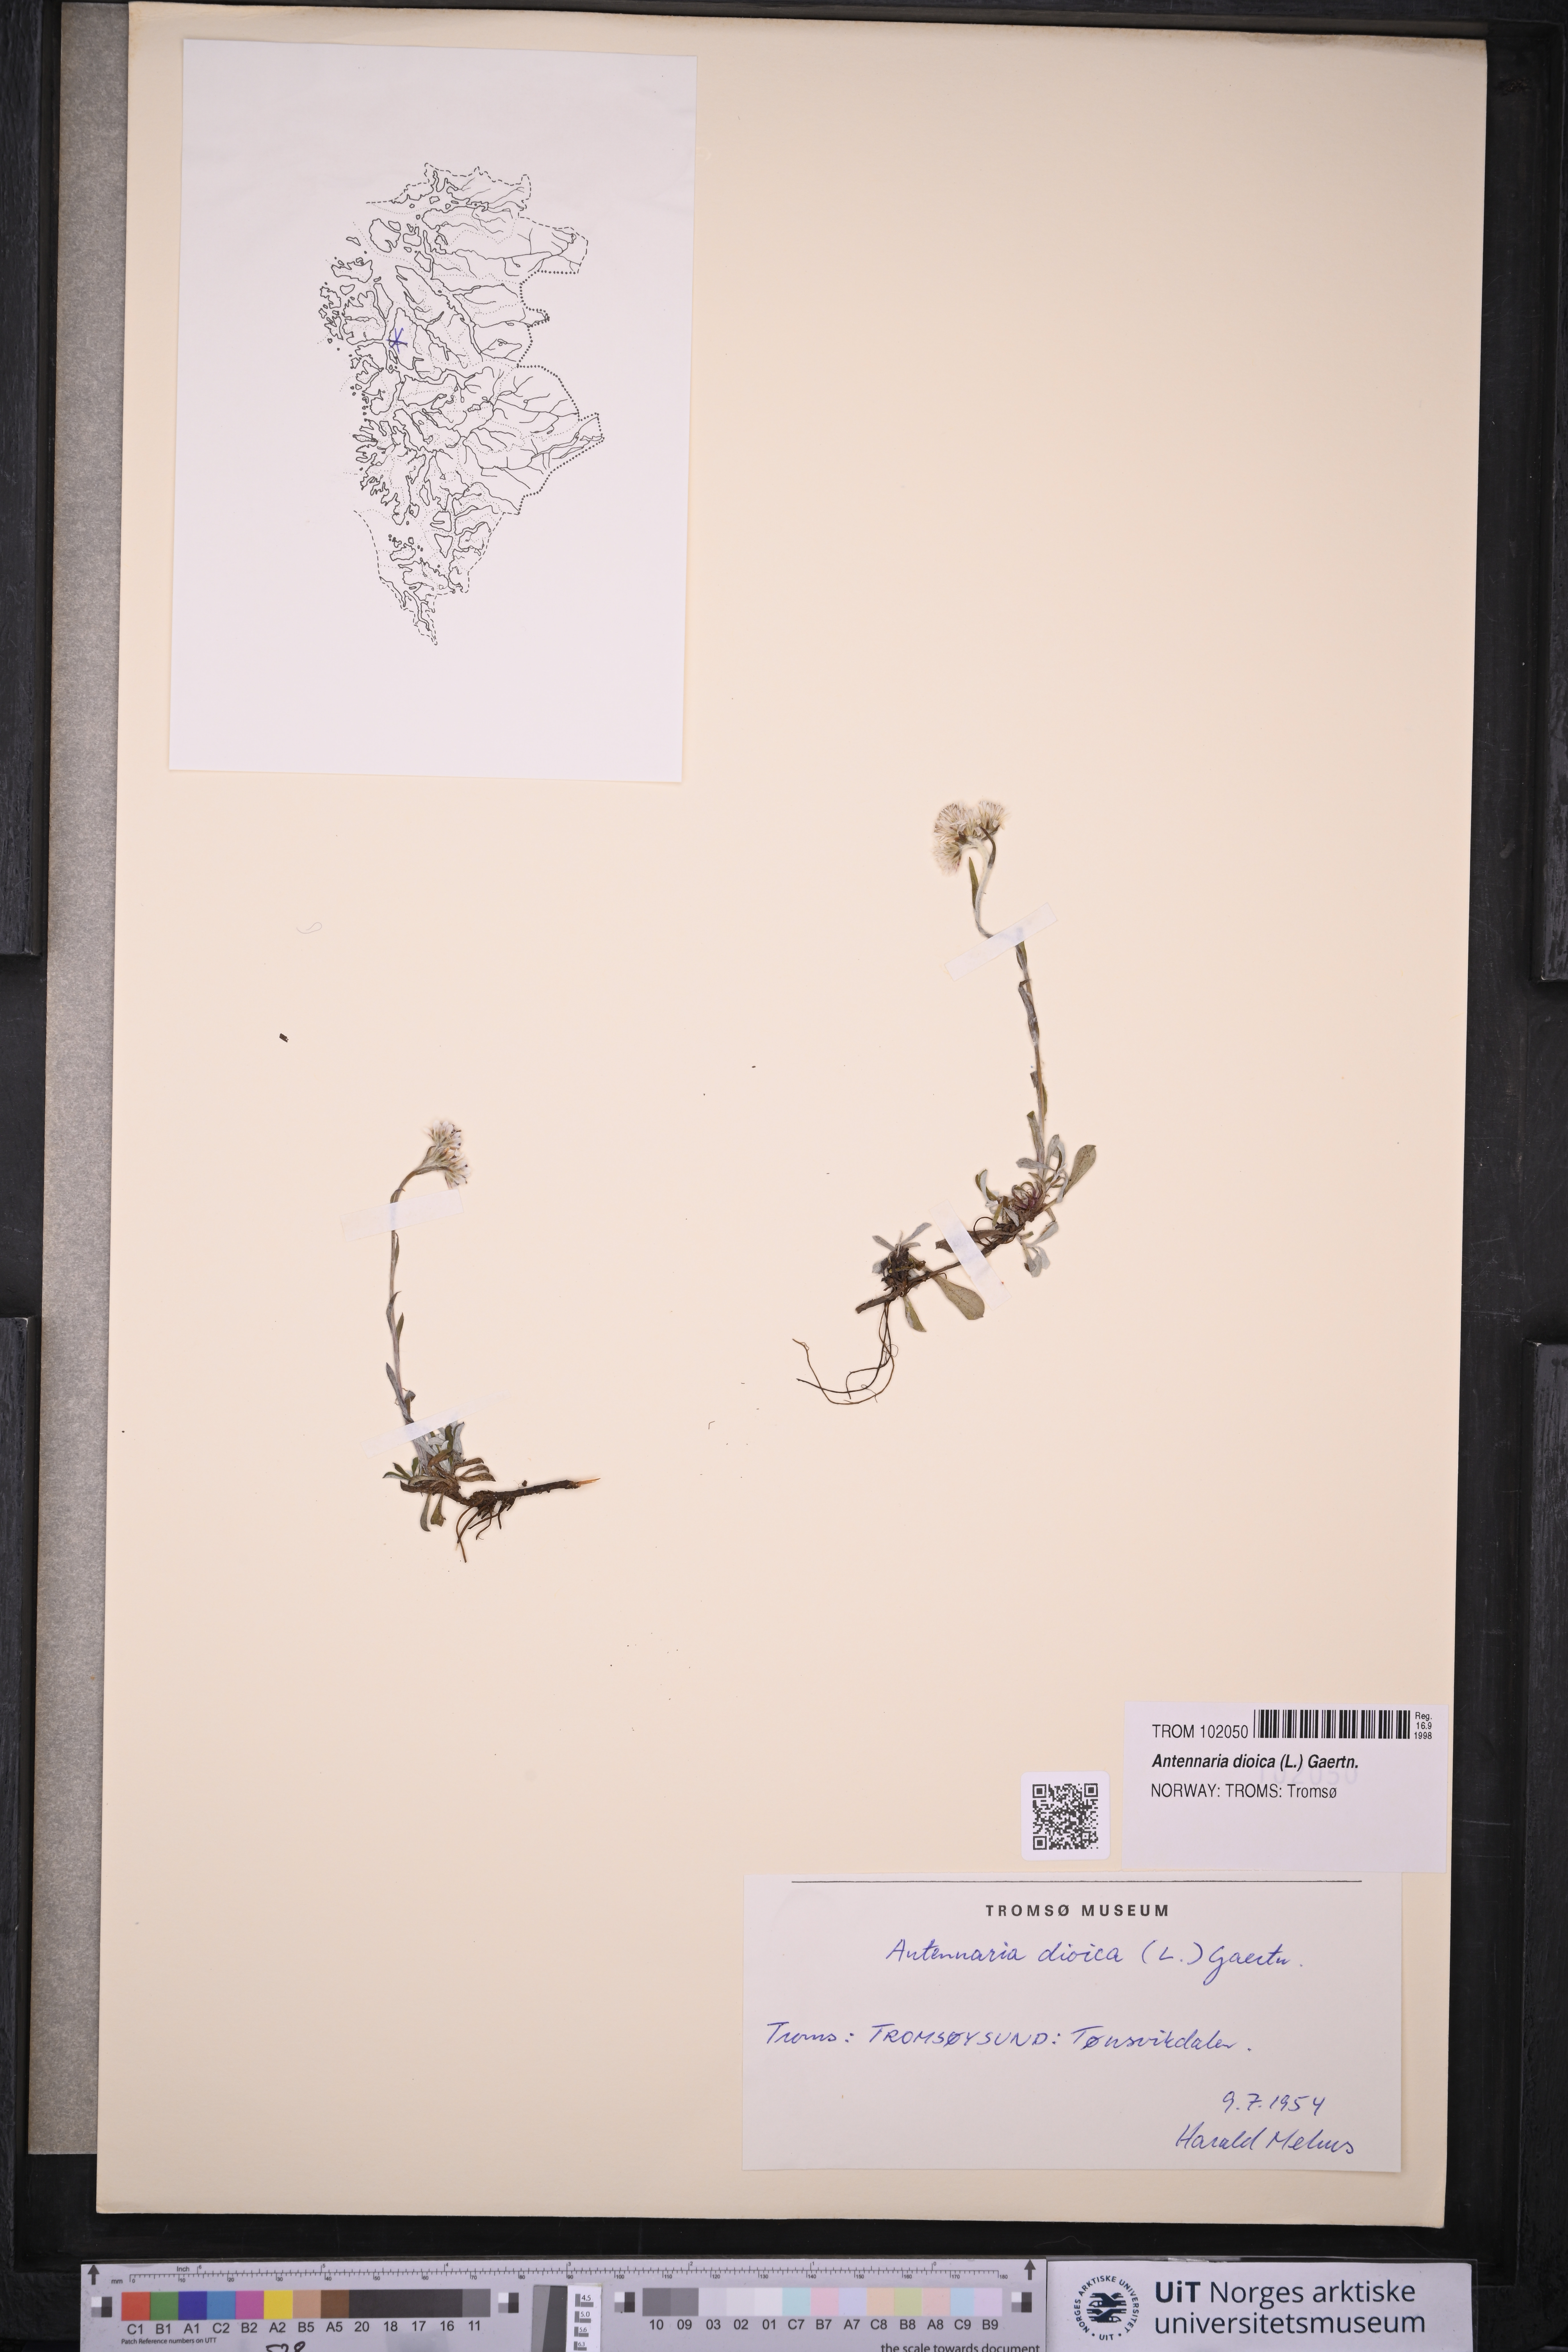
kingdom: Plantae
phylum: Tracheophyta
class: Magnoliopsida
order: Asterales
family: Asteraceae
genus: Antennaria
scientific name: Antennaria dioica
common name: Mountain everlasting
